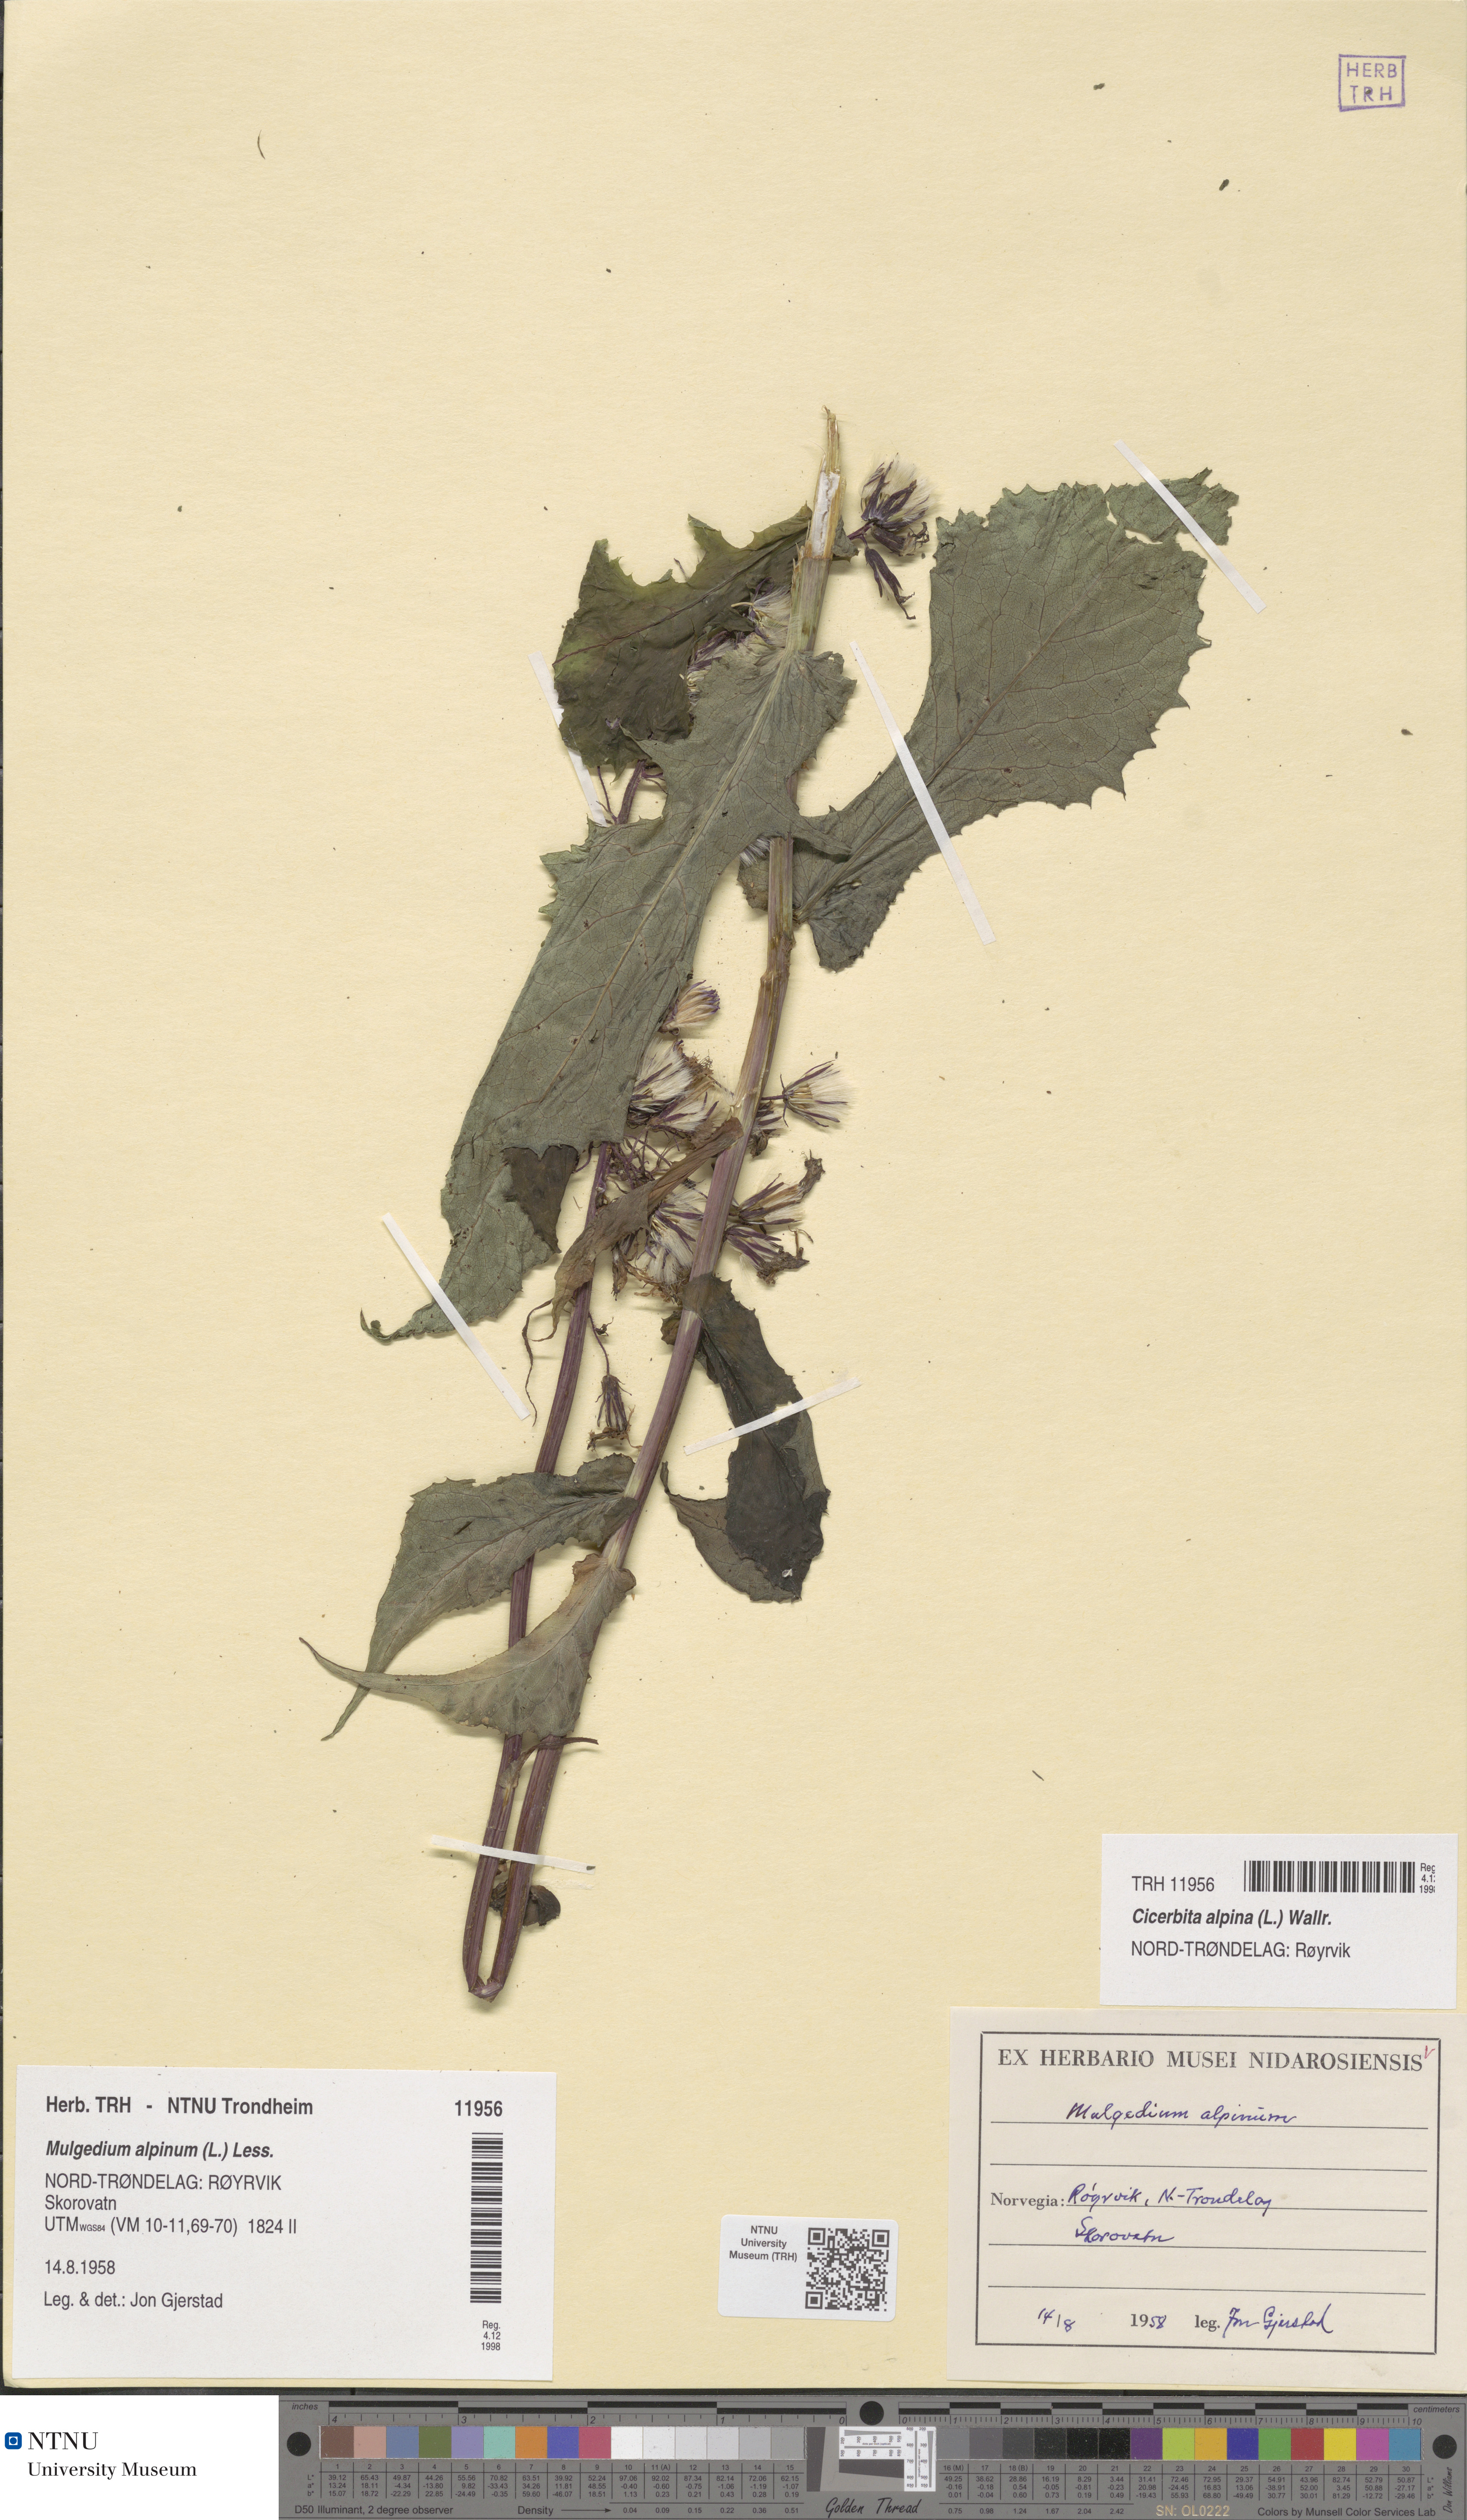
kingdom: Plantae
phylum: Tracheophyta
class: Magnoliopsida
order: Asterales
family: Asteraceae
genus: Cicerbita
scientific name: Cicerbita alpina
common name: Alpine blue-sow-thistle
